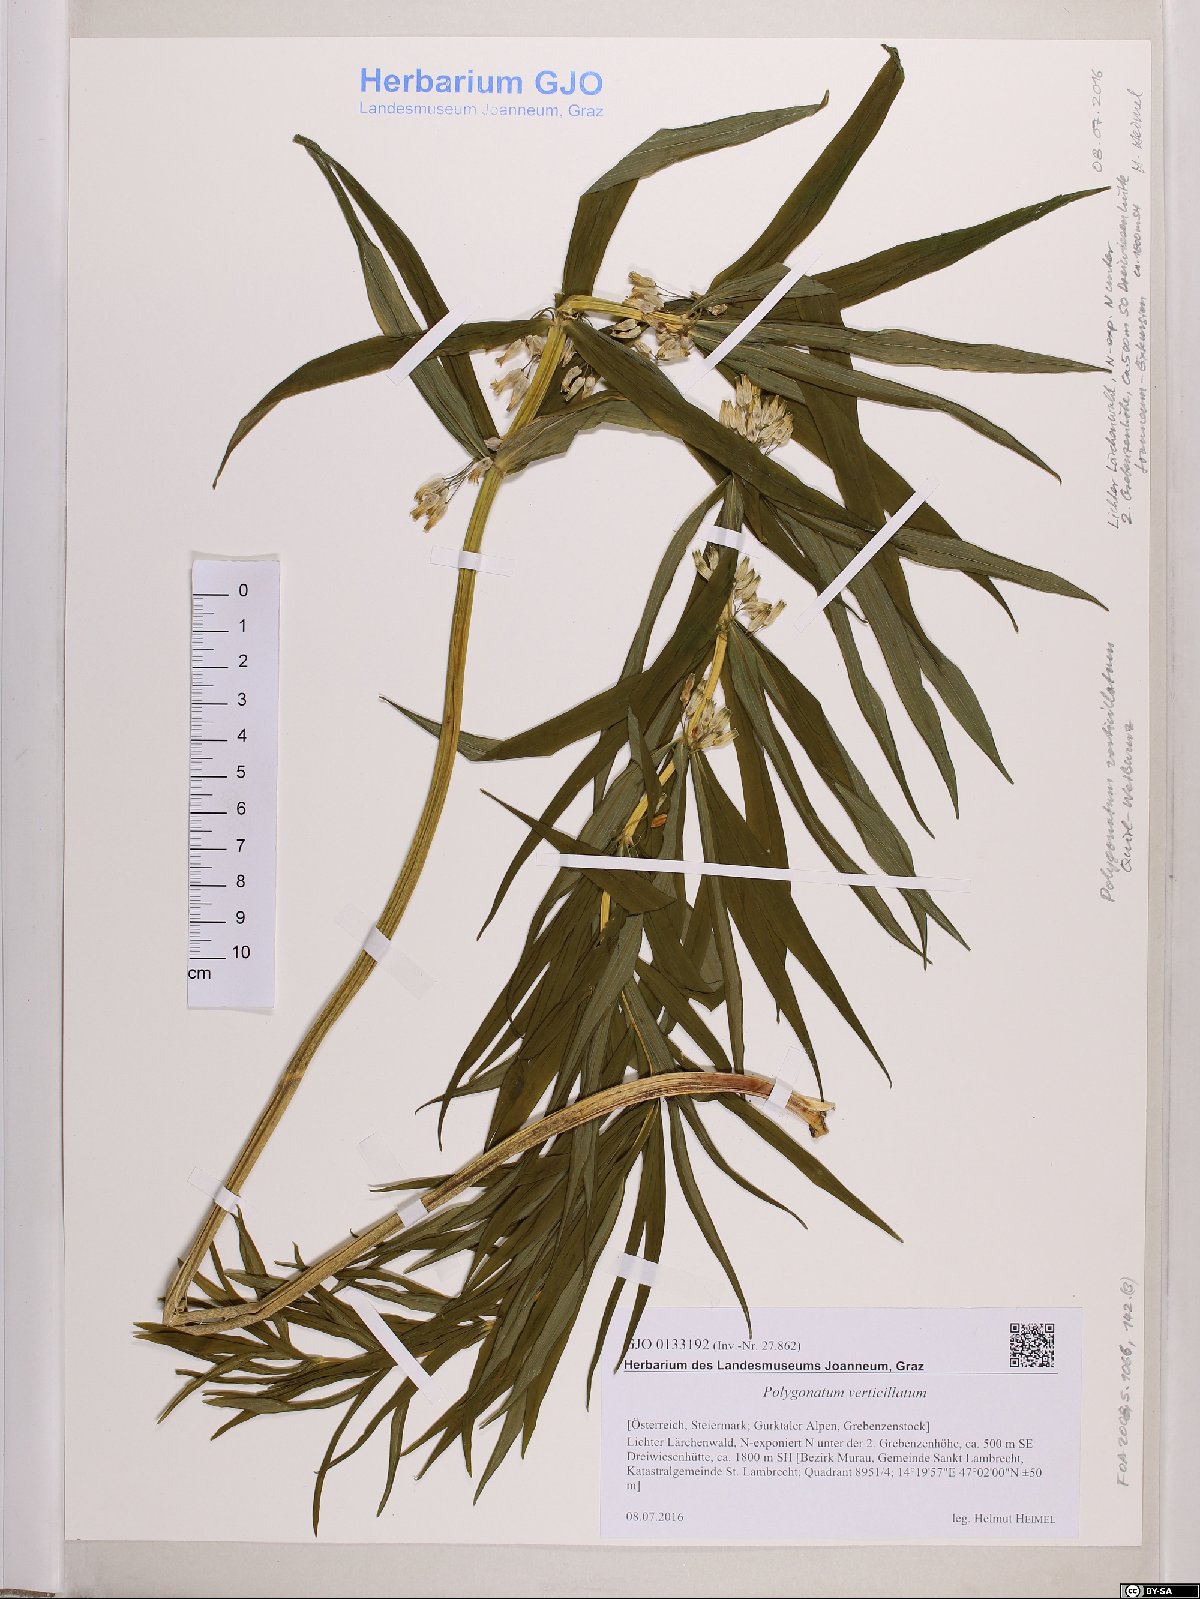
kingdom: Plantae
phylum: Tracheophyta
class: Liliopsida
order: Asparagales
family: Asparagaceae
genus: Polygonatum
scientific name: Polygonatum verticillatum
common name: Whorled solomon's-seal
